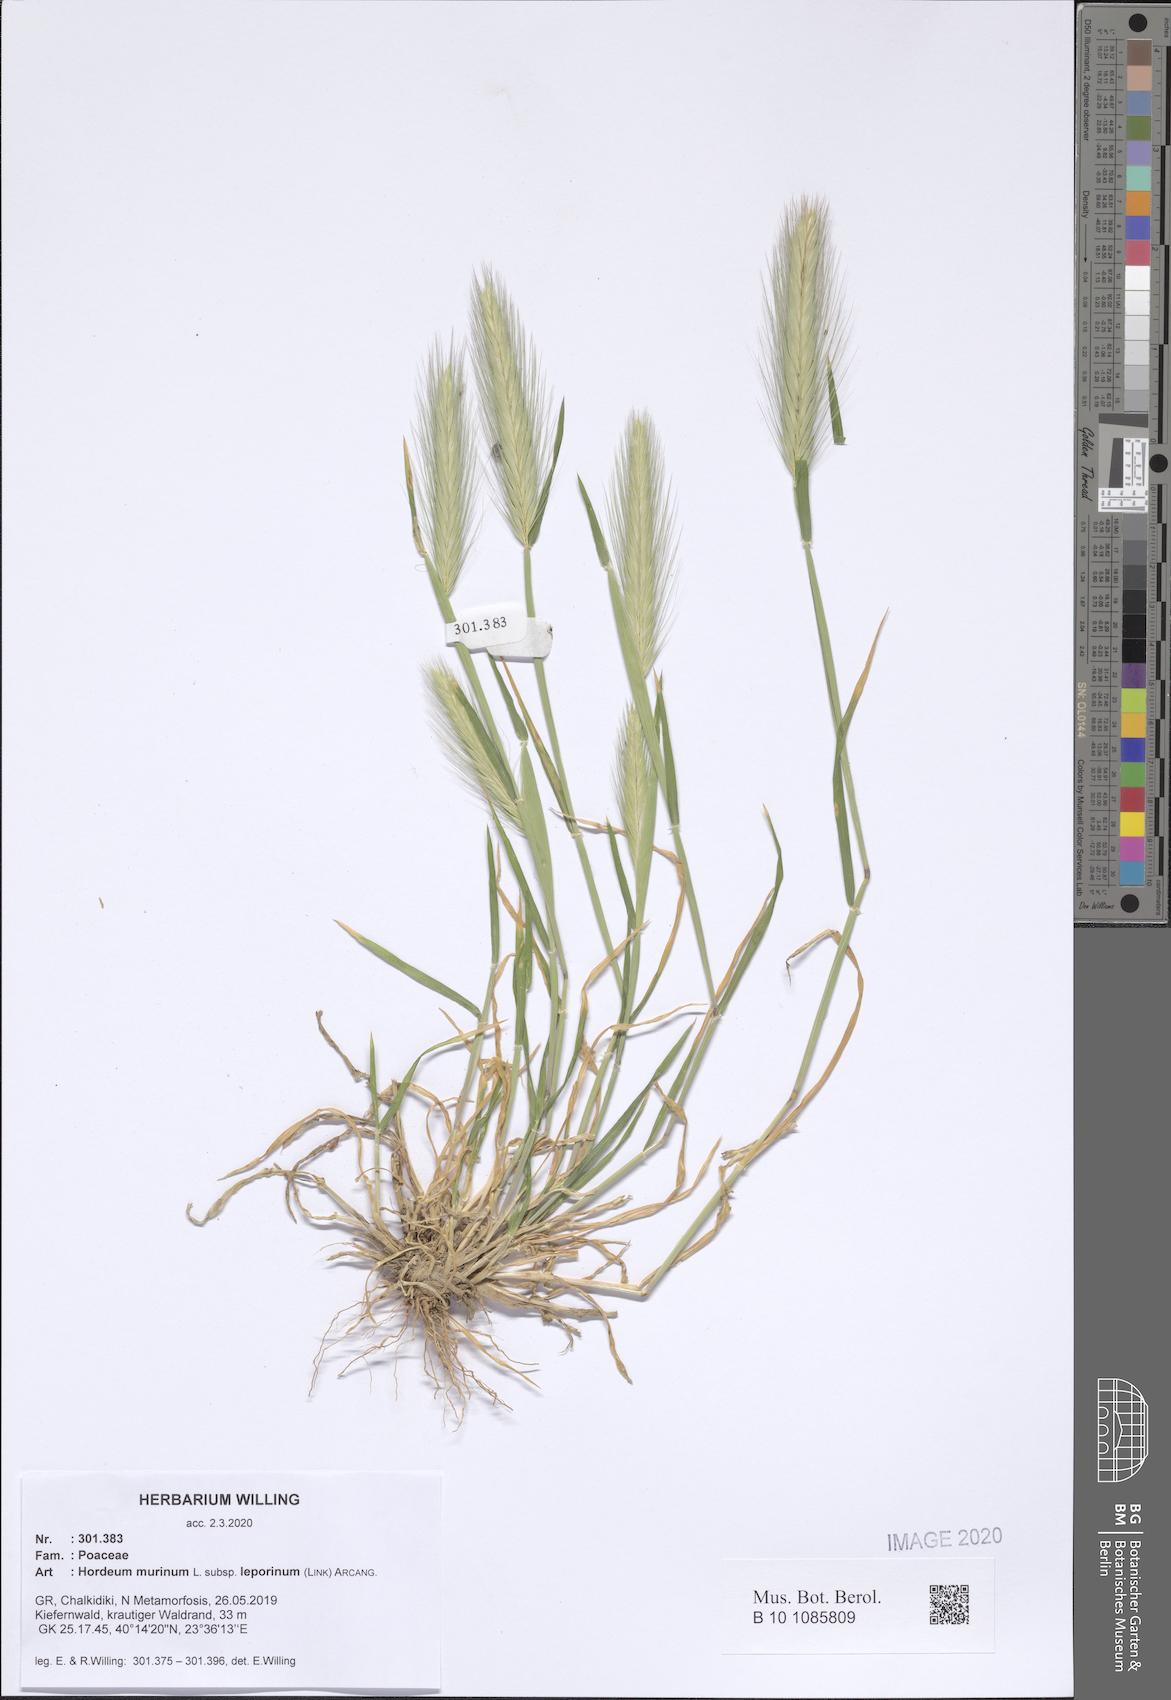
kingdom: Plantae
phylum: Tracheophyta
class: Liliopsida
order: Poales
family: Poaceae
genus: Hordeum
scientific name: Hordeum murinum
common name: Wall barley
